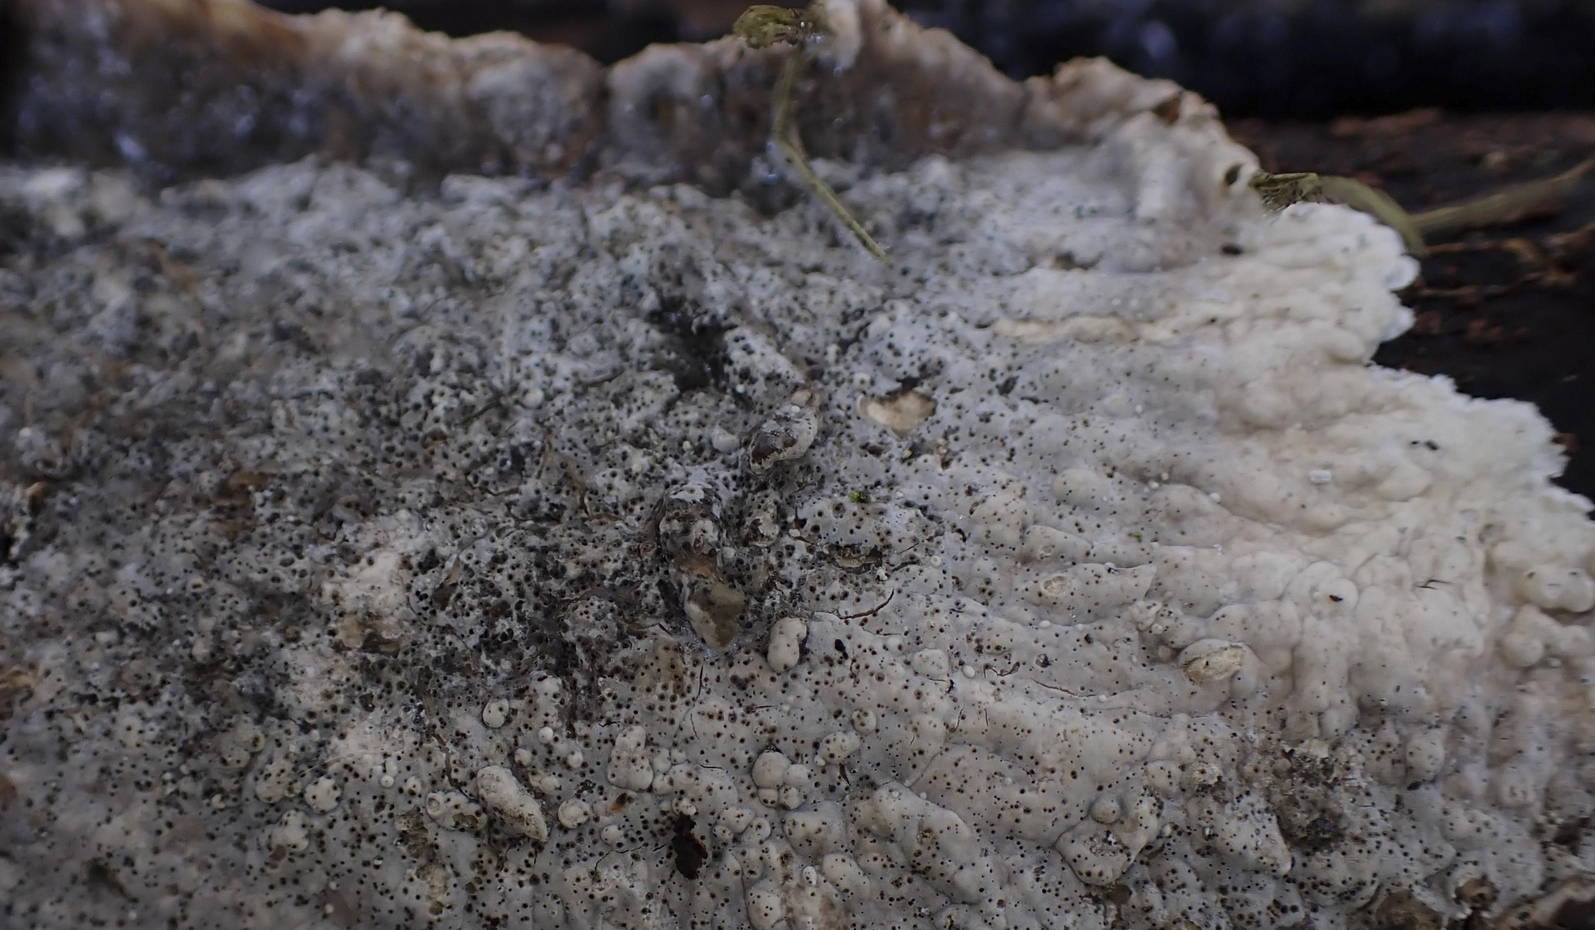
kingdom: Fungi
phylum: Ascomycota
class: Sordariomycetes
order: Sordariales
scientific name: Sordariales
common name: kernesvampordenen
